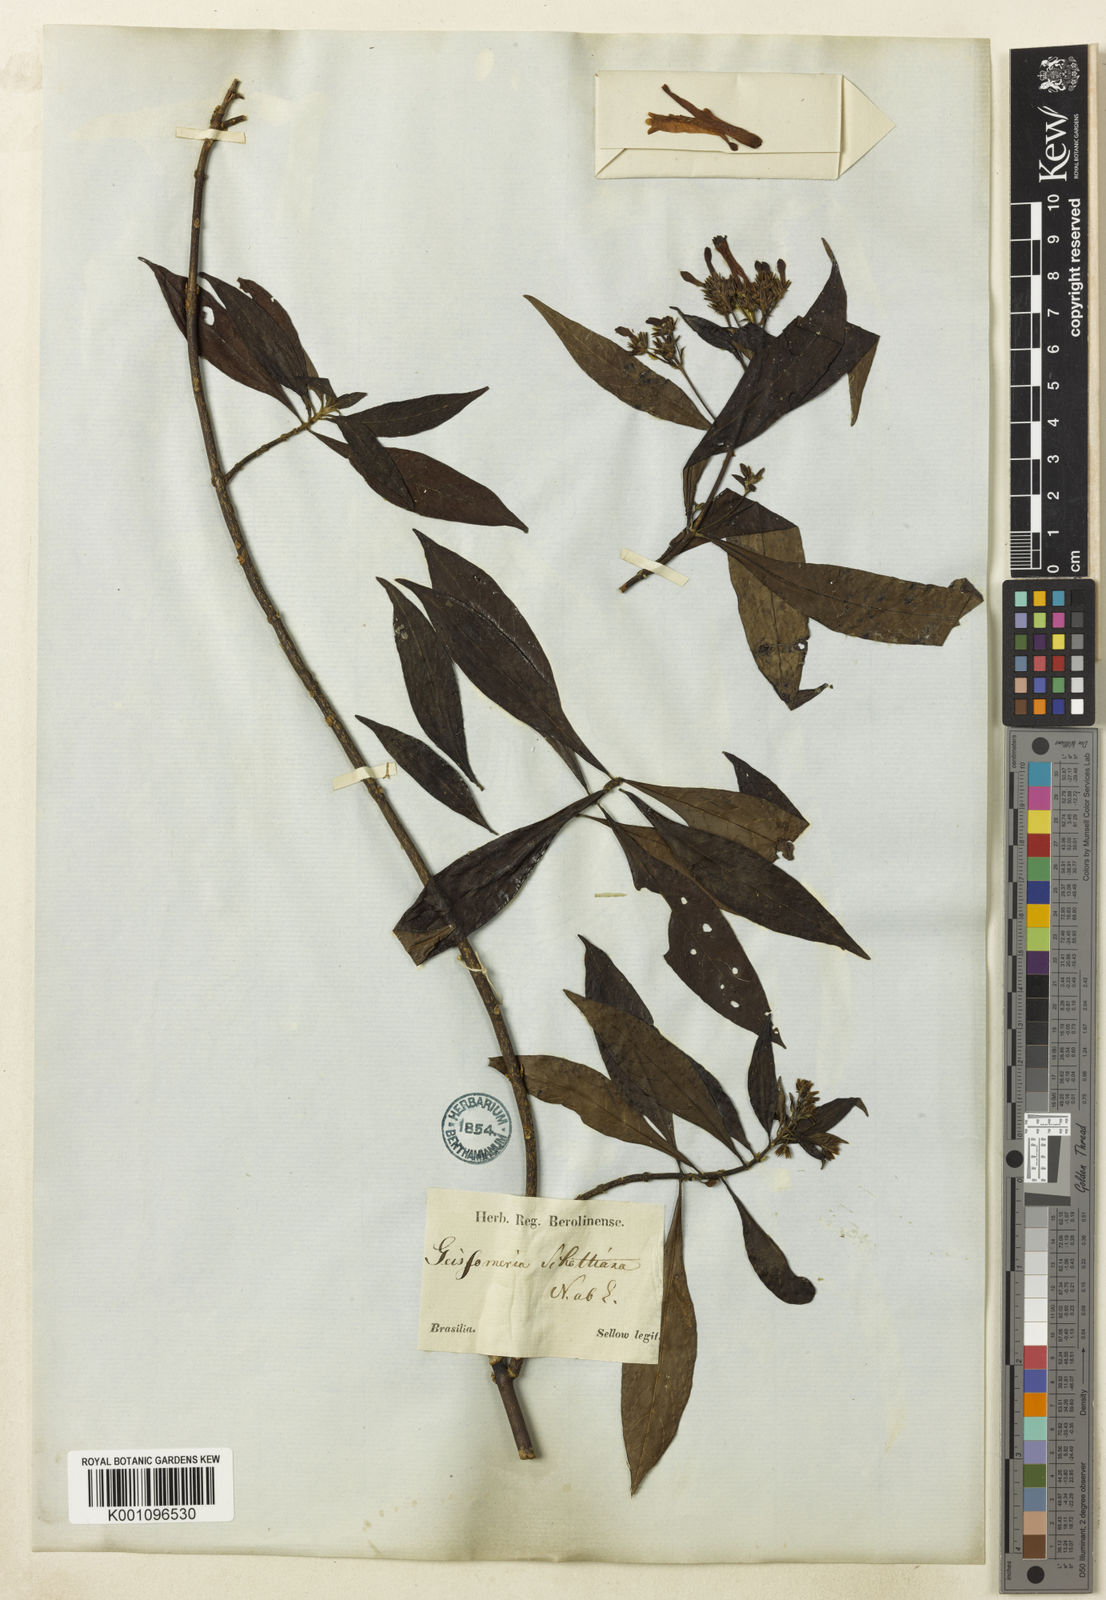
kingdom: Plantae
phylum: Tracheophyta
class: Magnoliopsida
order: Lamiales
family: Acanthaceae
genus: Aphelandra
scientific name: Aphelandra schottiana
